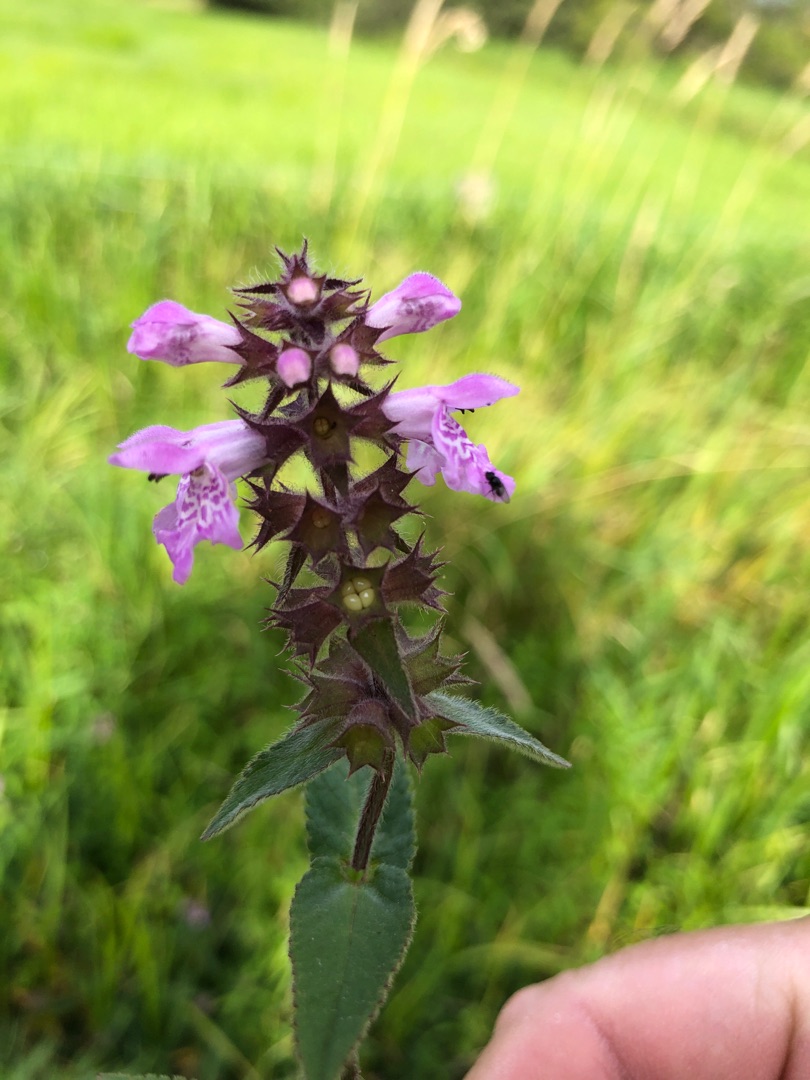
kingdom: Plantae
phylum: Tracheophyta
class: Magnoliopsida
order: Lamiales
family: Lamiaceae
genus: Stachys
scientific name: Stachys palustris
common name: Kær-galtetand
